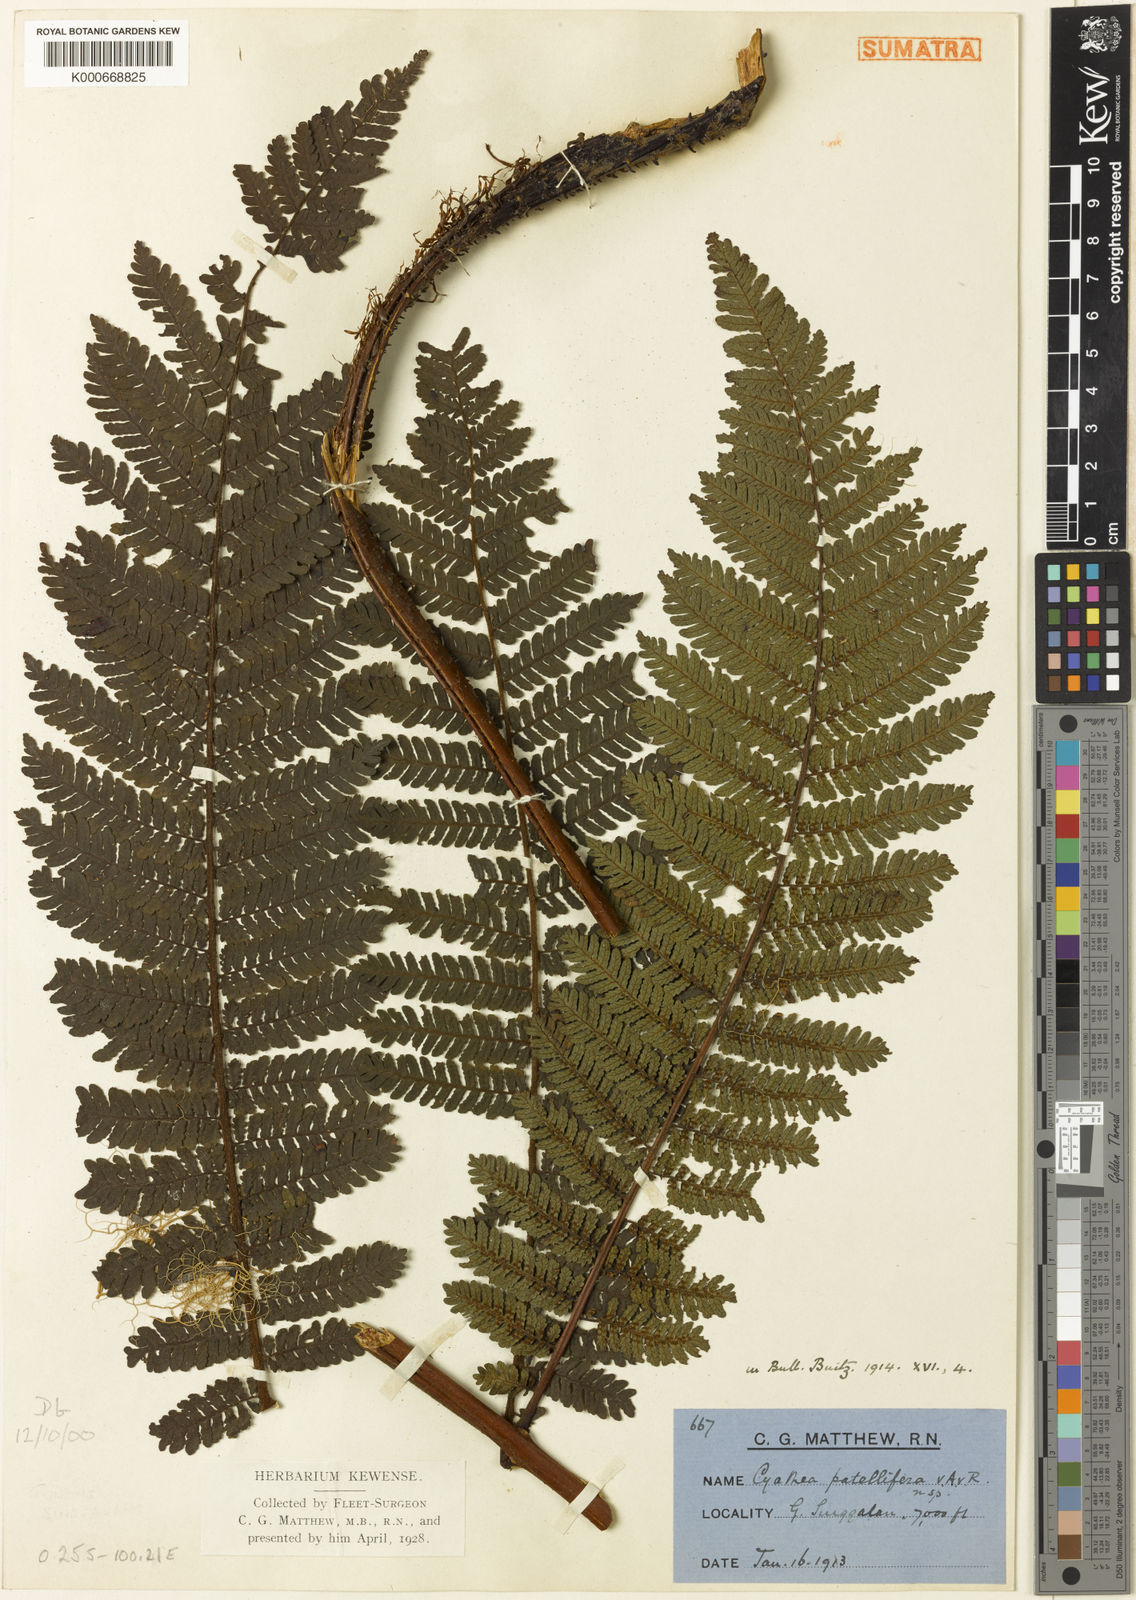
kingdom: Plantae
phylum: Tracheophyta
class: Polypodiopsida
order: Cyatheales
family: Cyatheaceae
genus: Alsophila
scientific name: Alsophila patellifera
